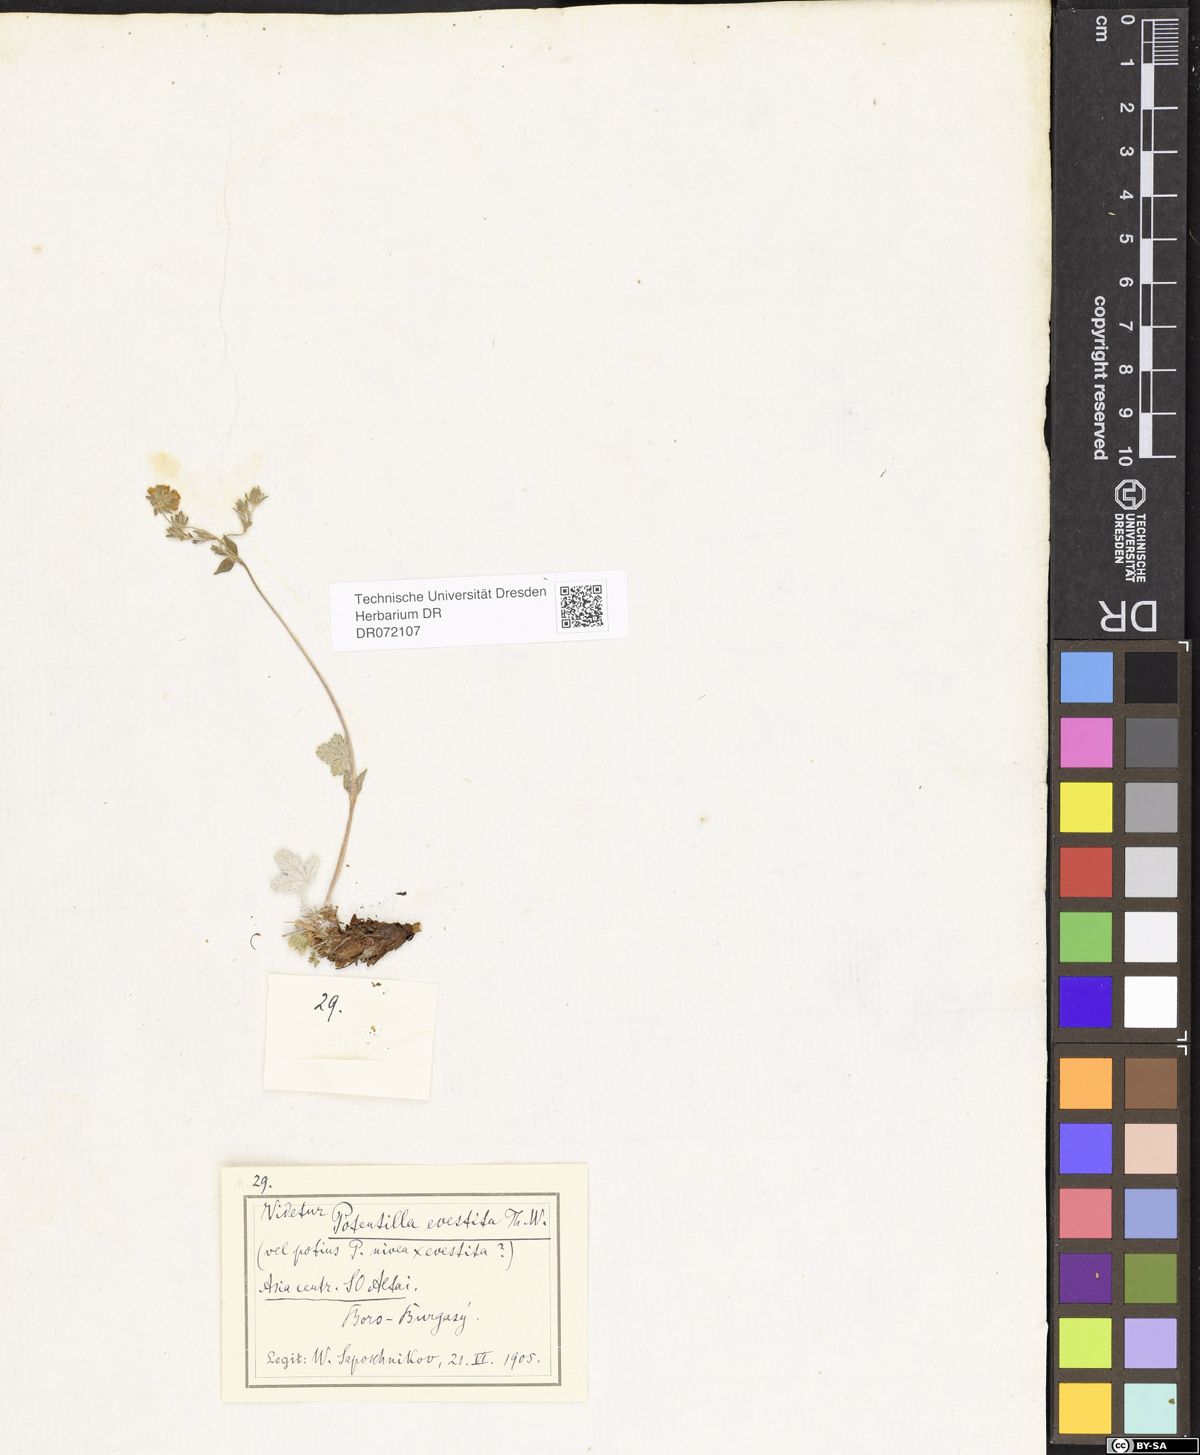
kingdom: Plantae
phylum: Tracheophyta
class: Magnoliopsida
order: Rosales
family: Rosaceae
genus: Potentilla
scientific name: Potentilla evestita
